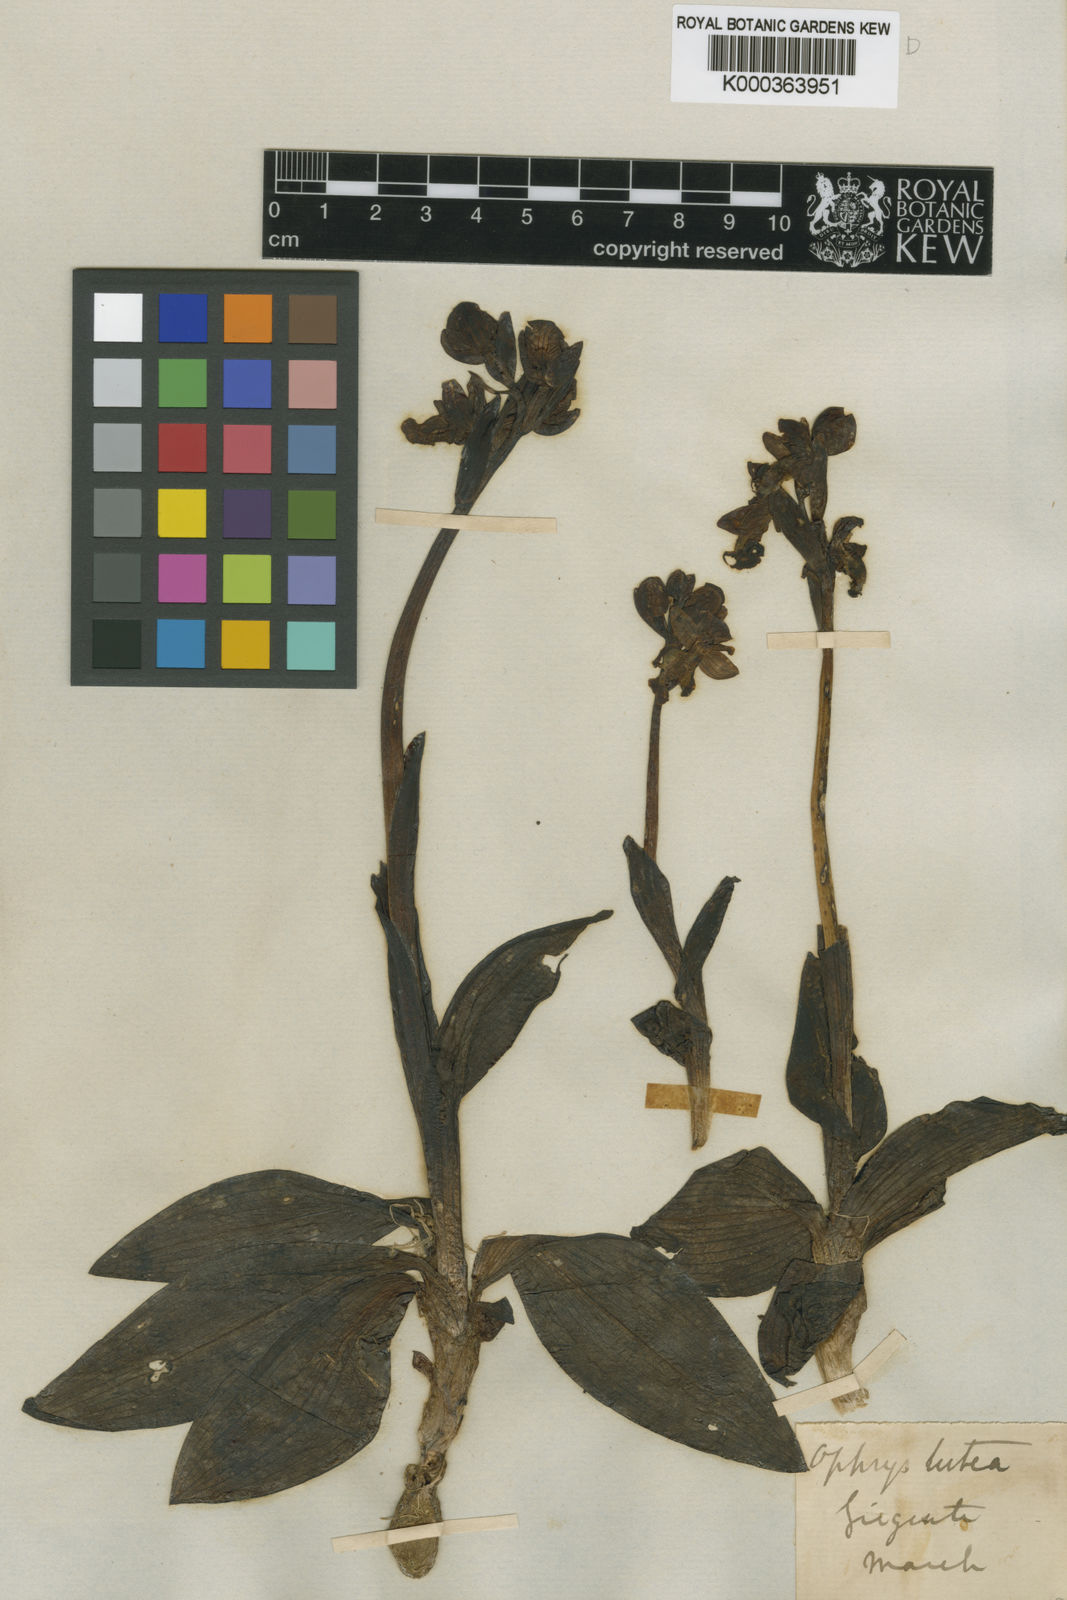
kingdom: Plantae
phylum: Tracheophyta
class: Liliopsida
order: Asparagales
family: Orchidaceae
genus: Ophrys
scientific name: Ophrys lutea
